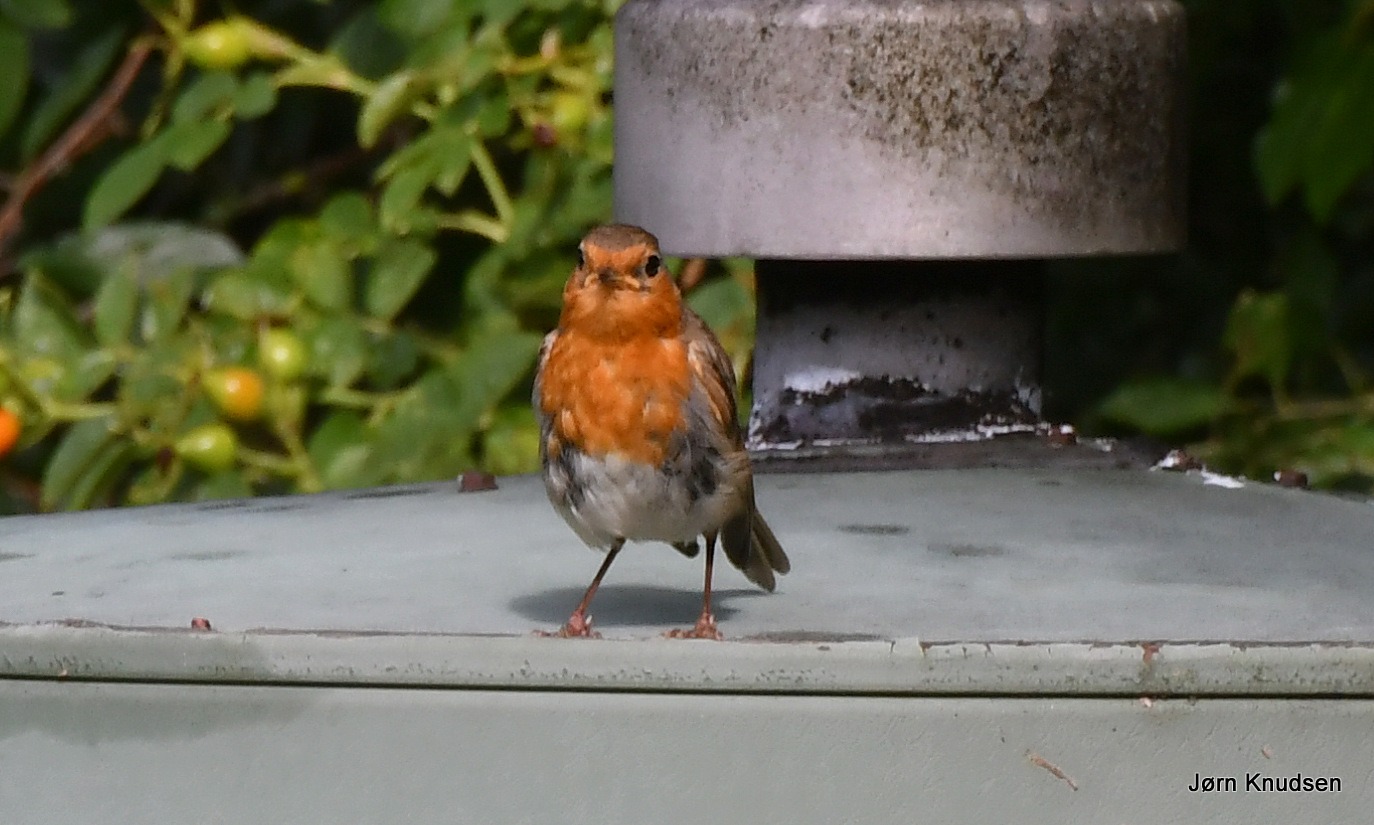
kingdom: Animalia
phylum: Chordata
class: Aves
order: Passeriformes
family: Muscicapidae
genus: Erithacus
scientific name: Erithacus rubecula
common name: Rødhals/rødkælk
